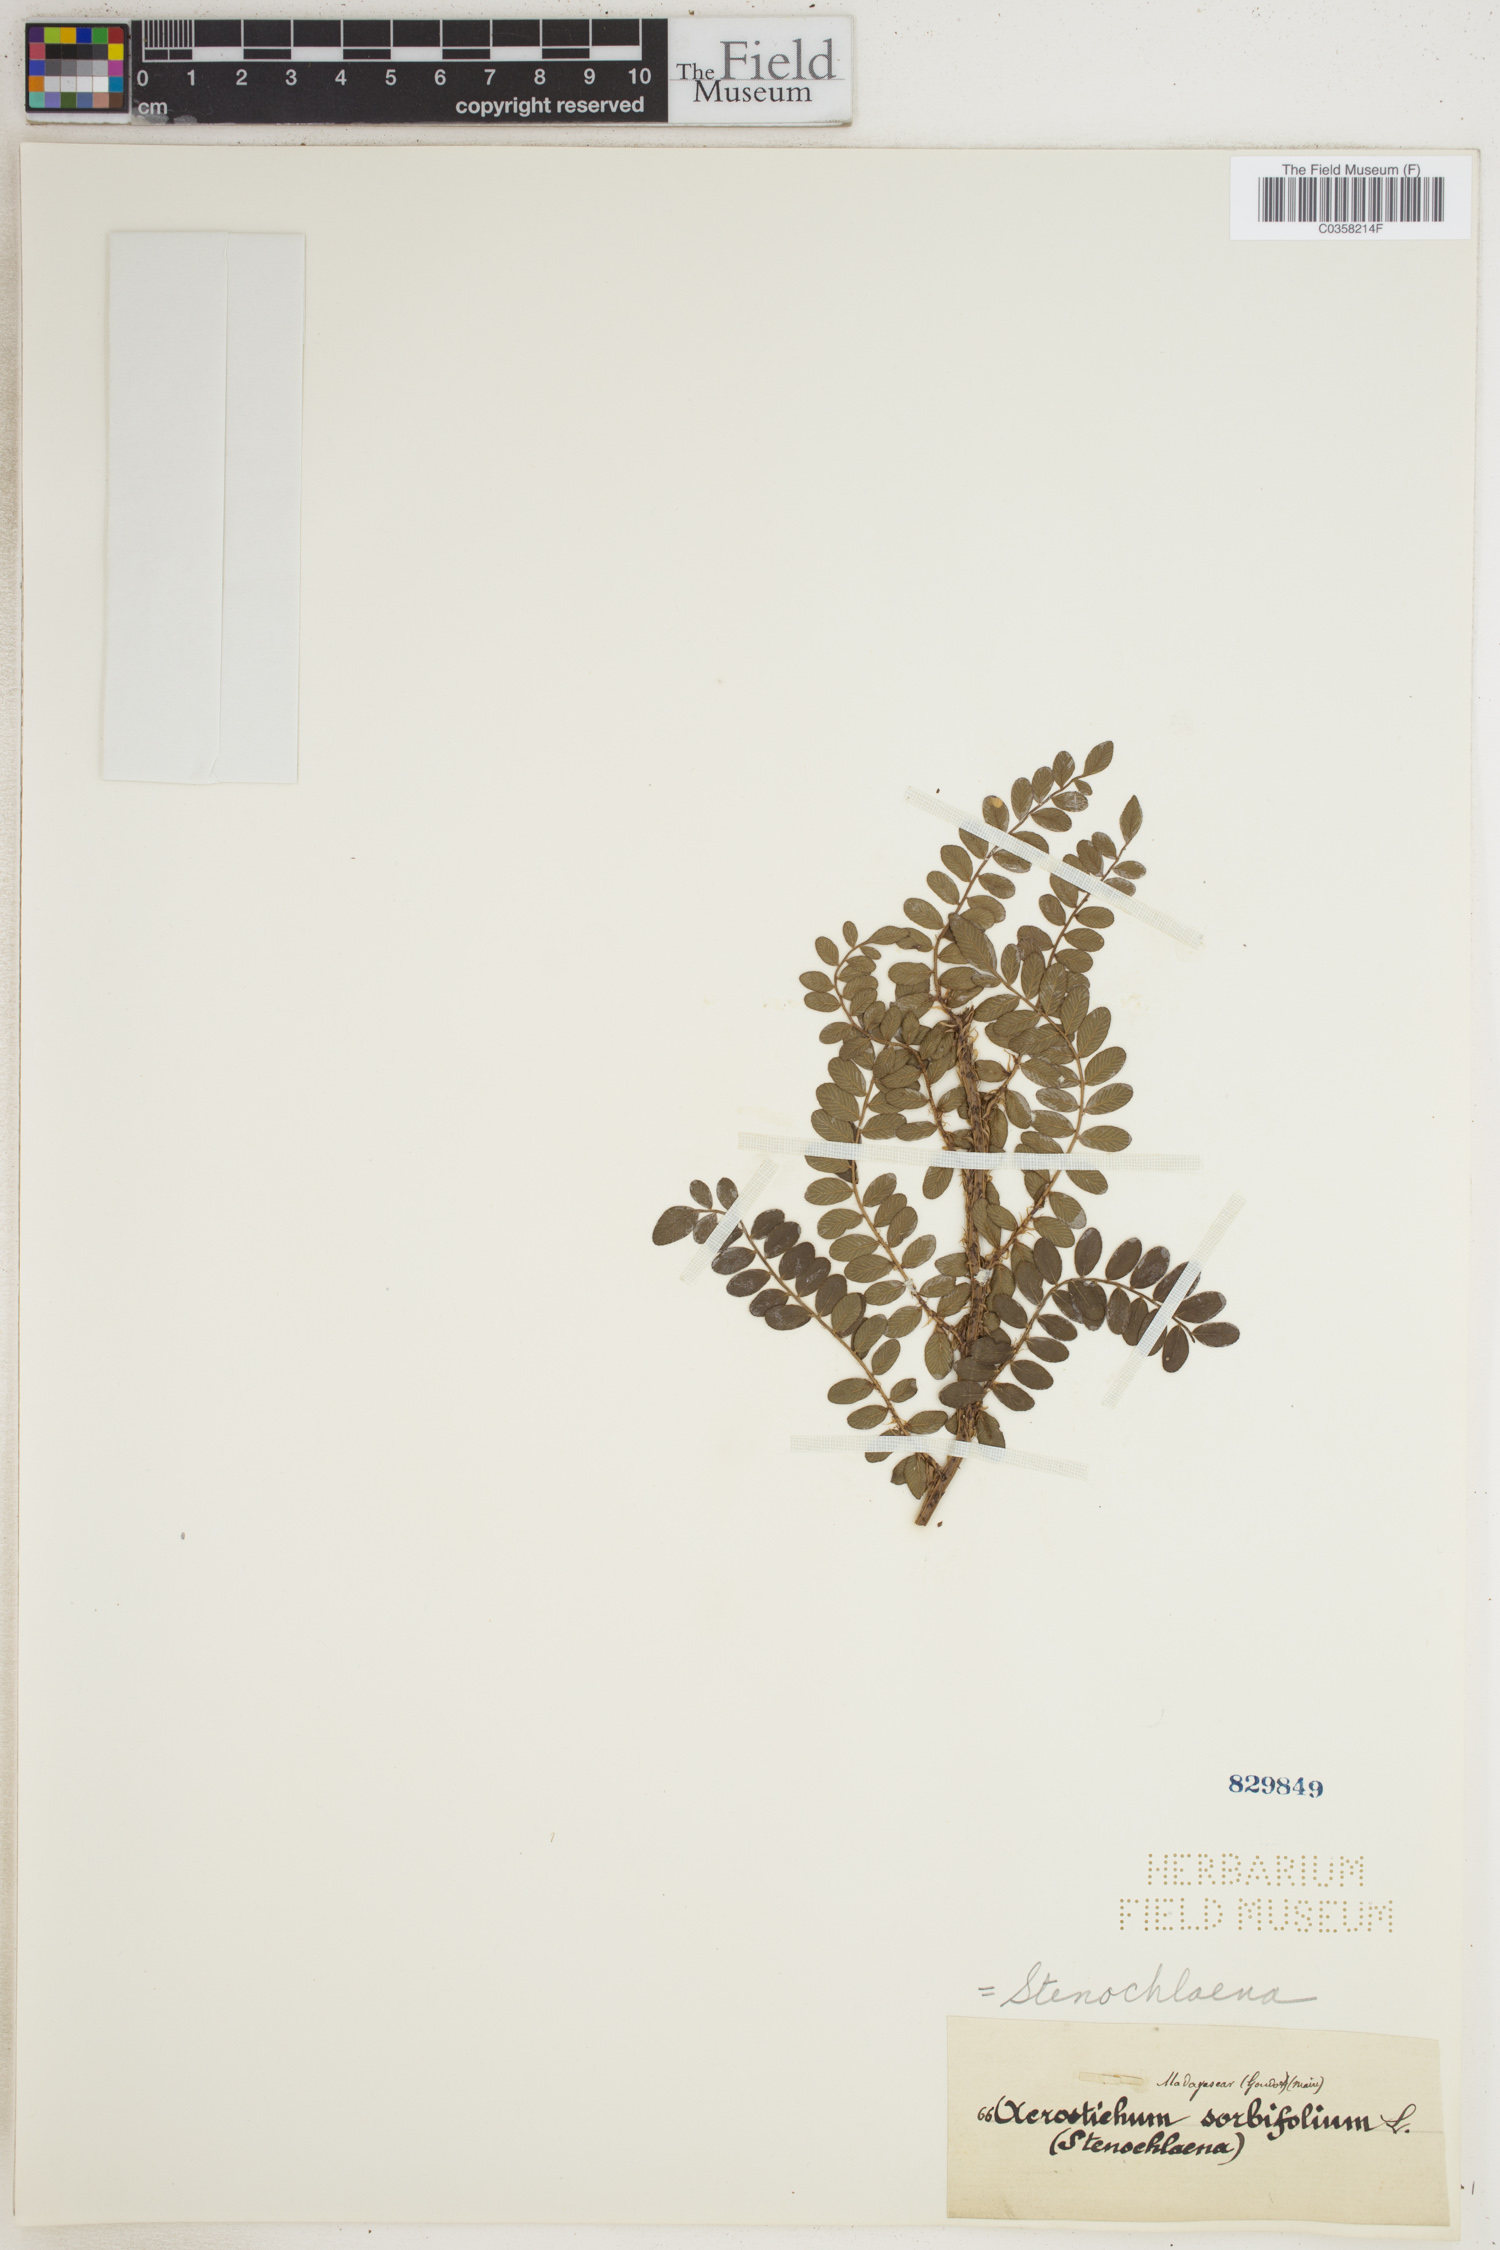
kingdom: Plantae
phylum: Tracheophyta
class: Polypodiopsida
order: Polypodiales
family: Lomariopsidaceae
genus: Lomariopsis
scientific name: Lomariopsis sorbifolia
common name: Acacia fringedfern
